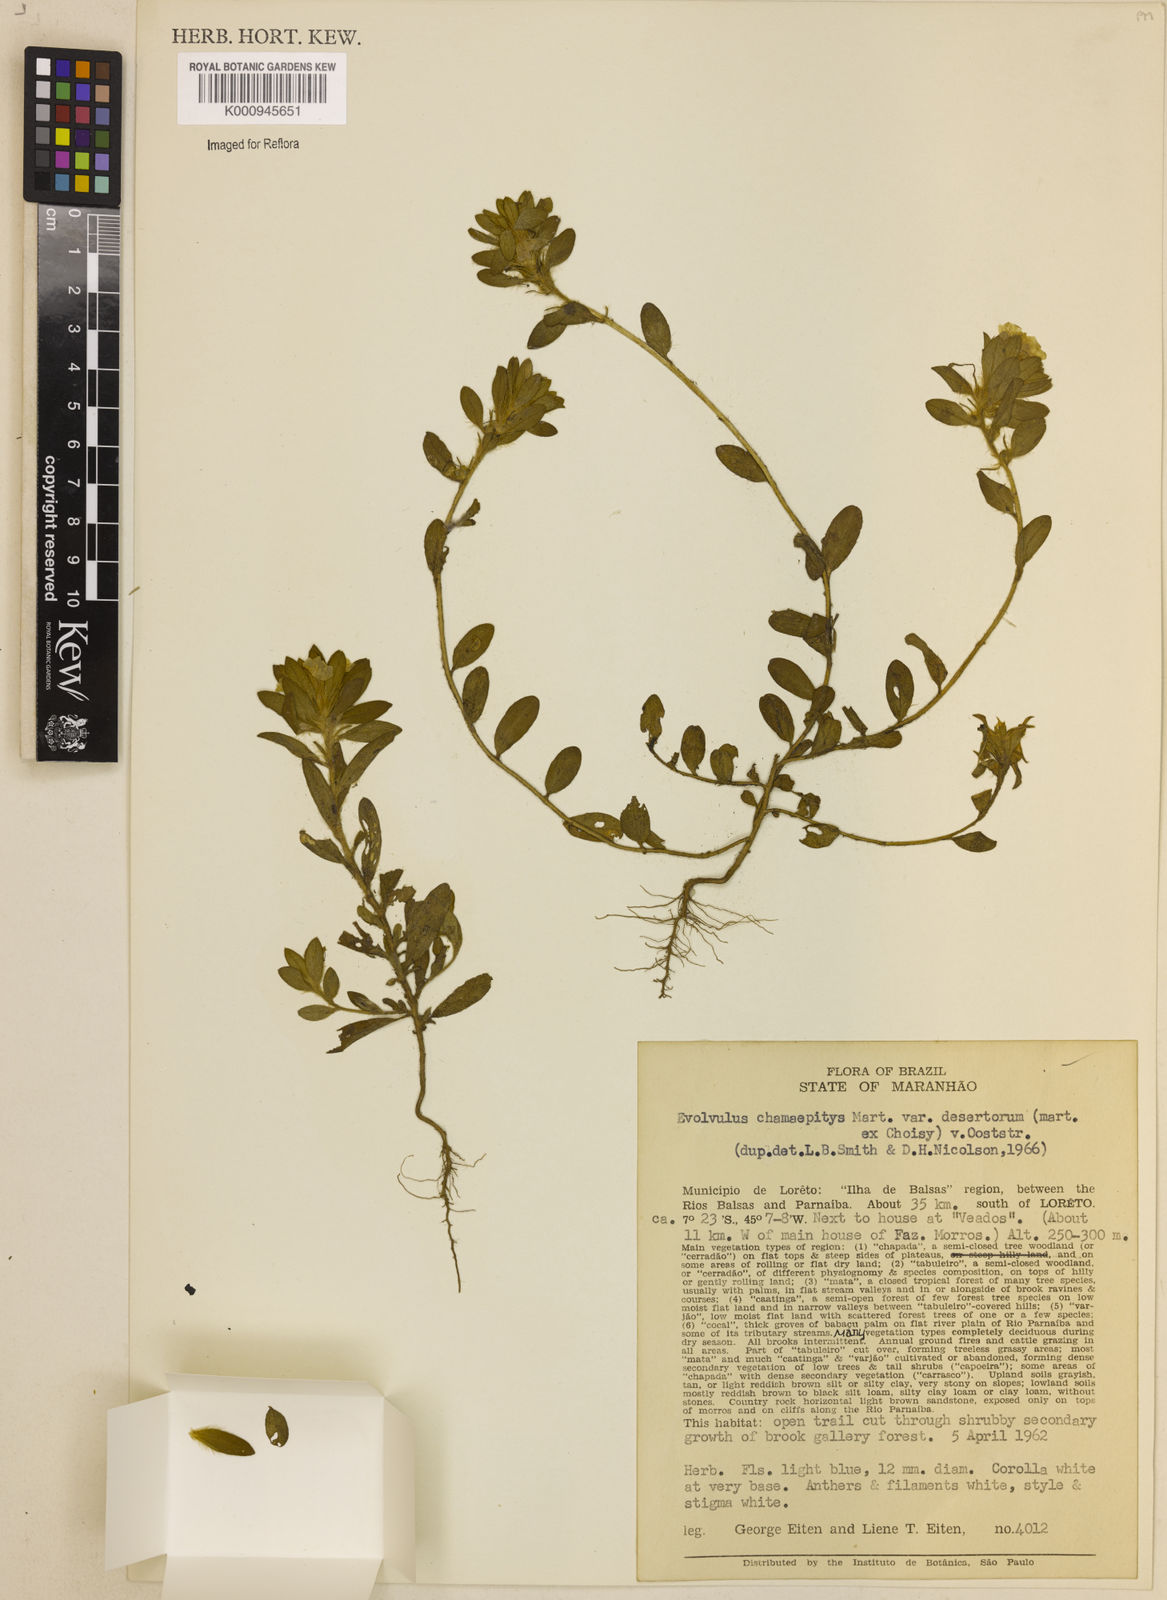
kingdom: Plantae
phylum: Tracheophyta
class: Magnoliopsida
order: Solanales
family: Convolvulaceae
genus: Evolvulus
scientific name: Evolvulus chamaepitys
